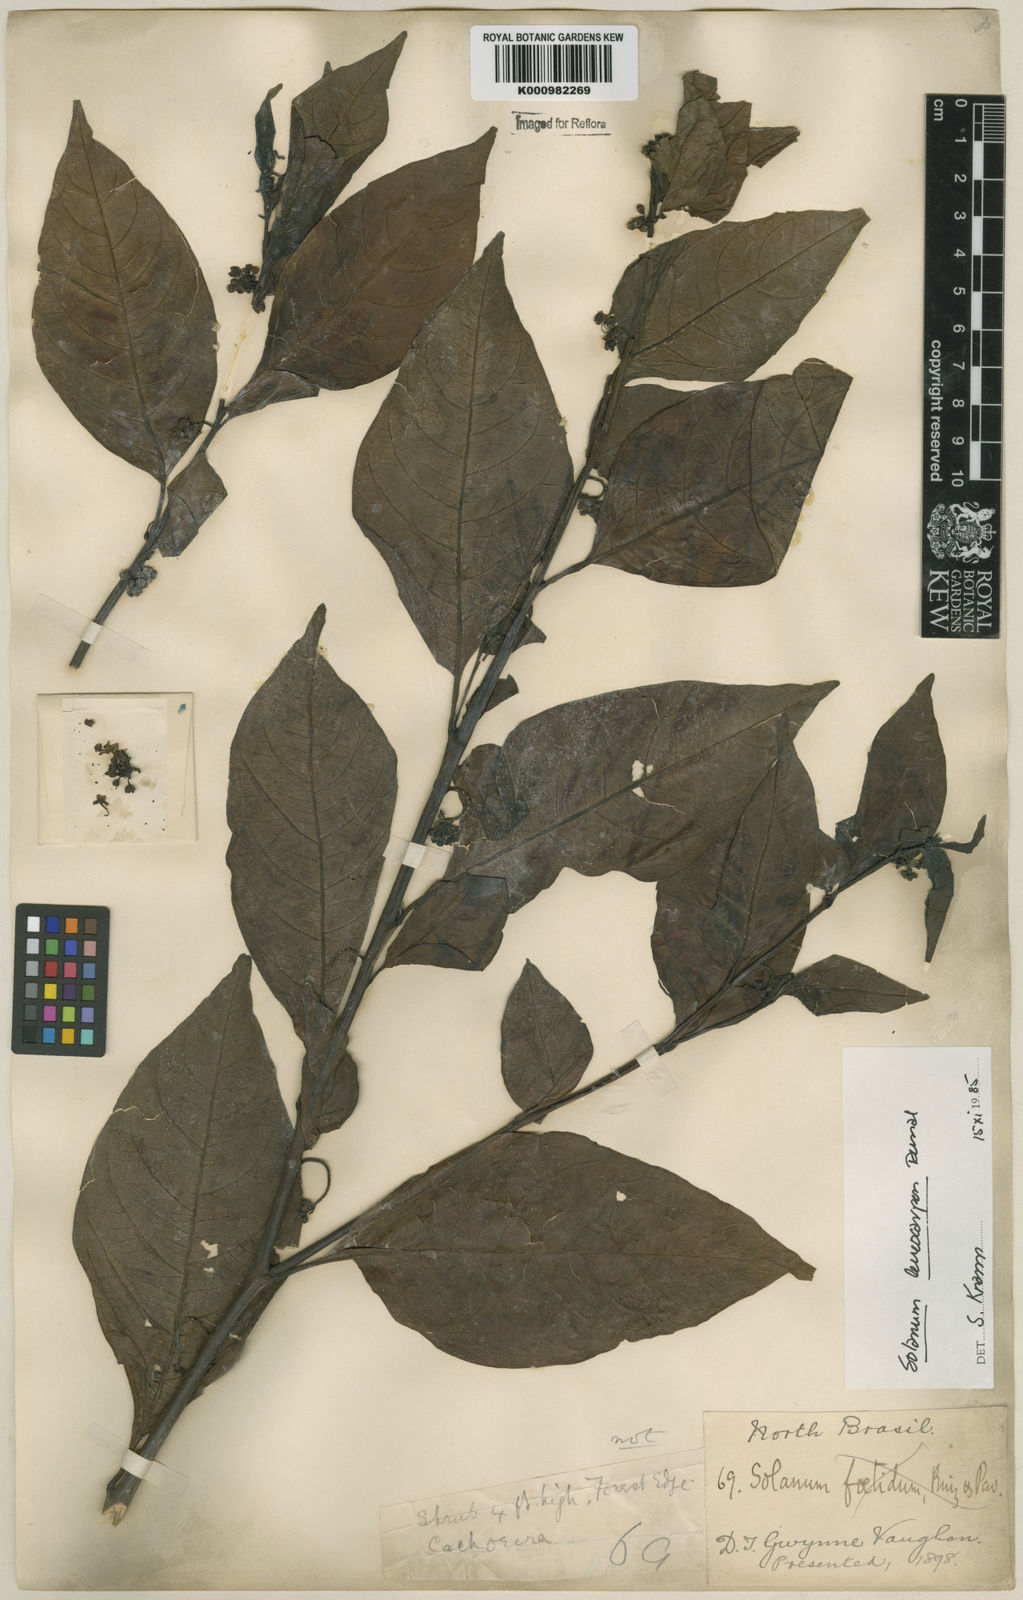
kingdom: Plantae
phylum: Tracheophyta
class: Magnoliopsida
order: Solanales
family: Solanaceae
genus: Solanum
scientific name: Solanum leucocarpon
